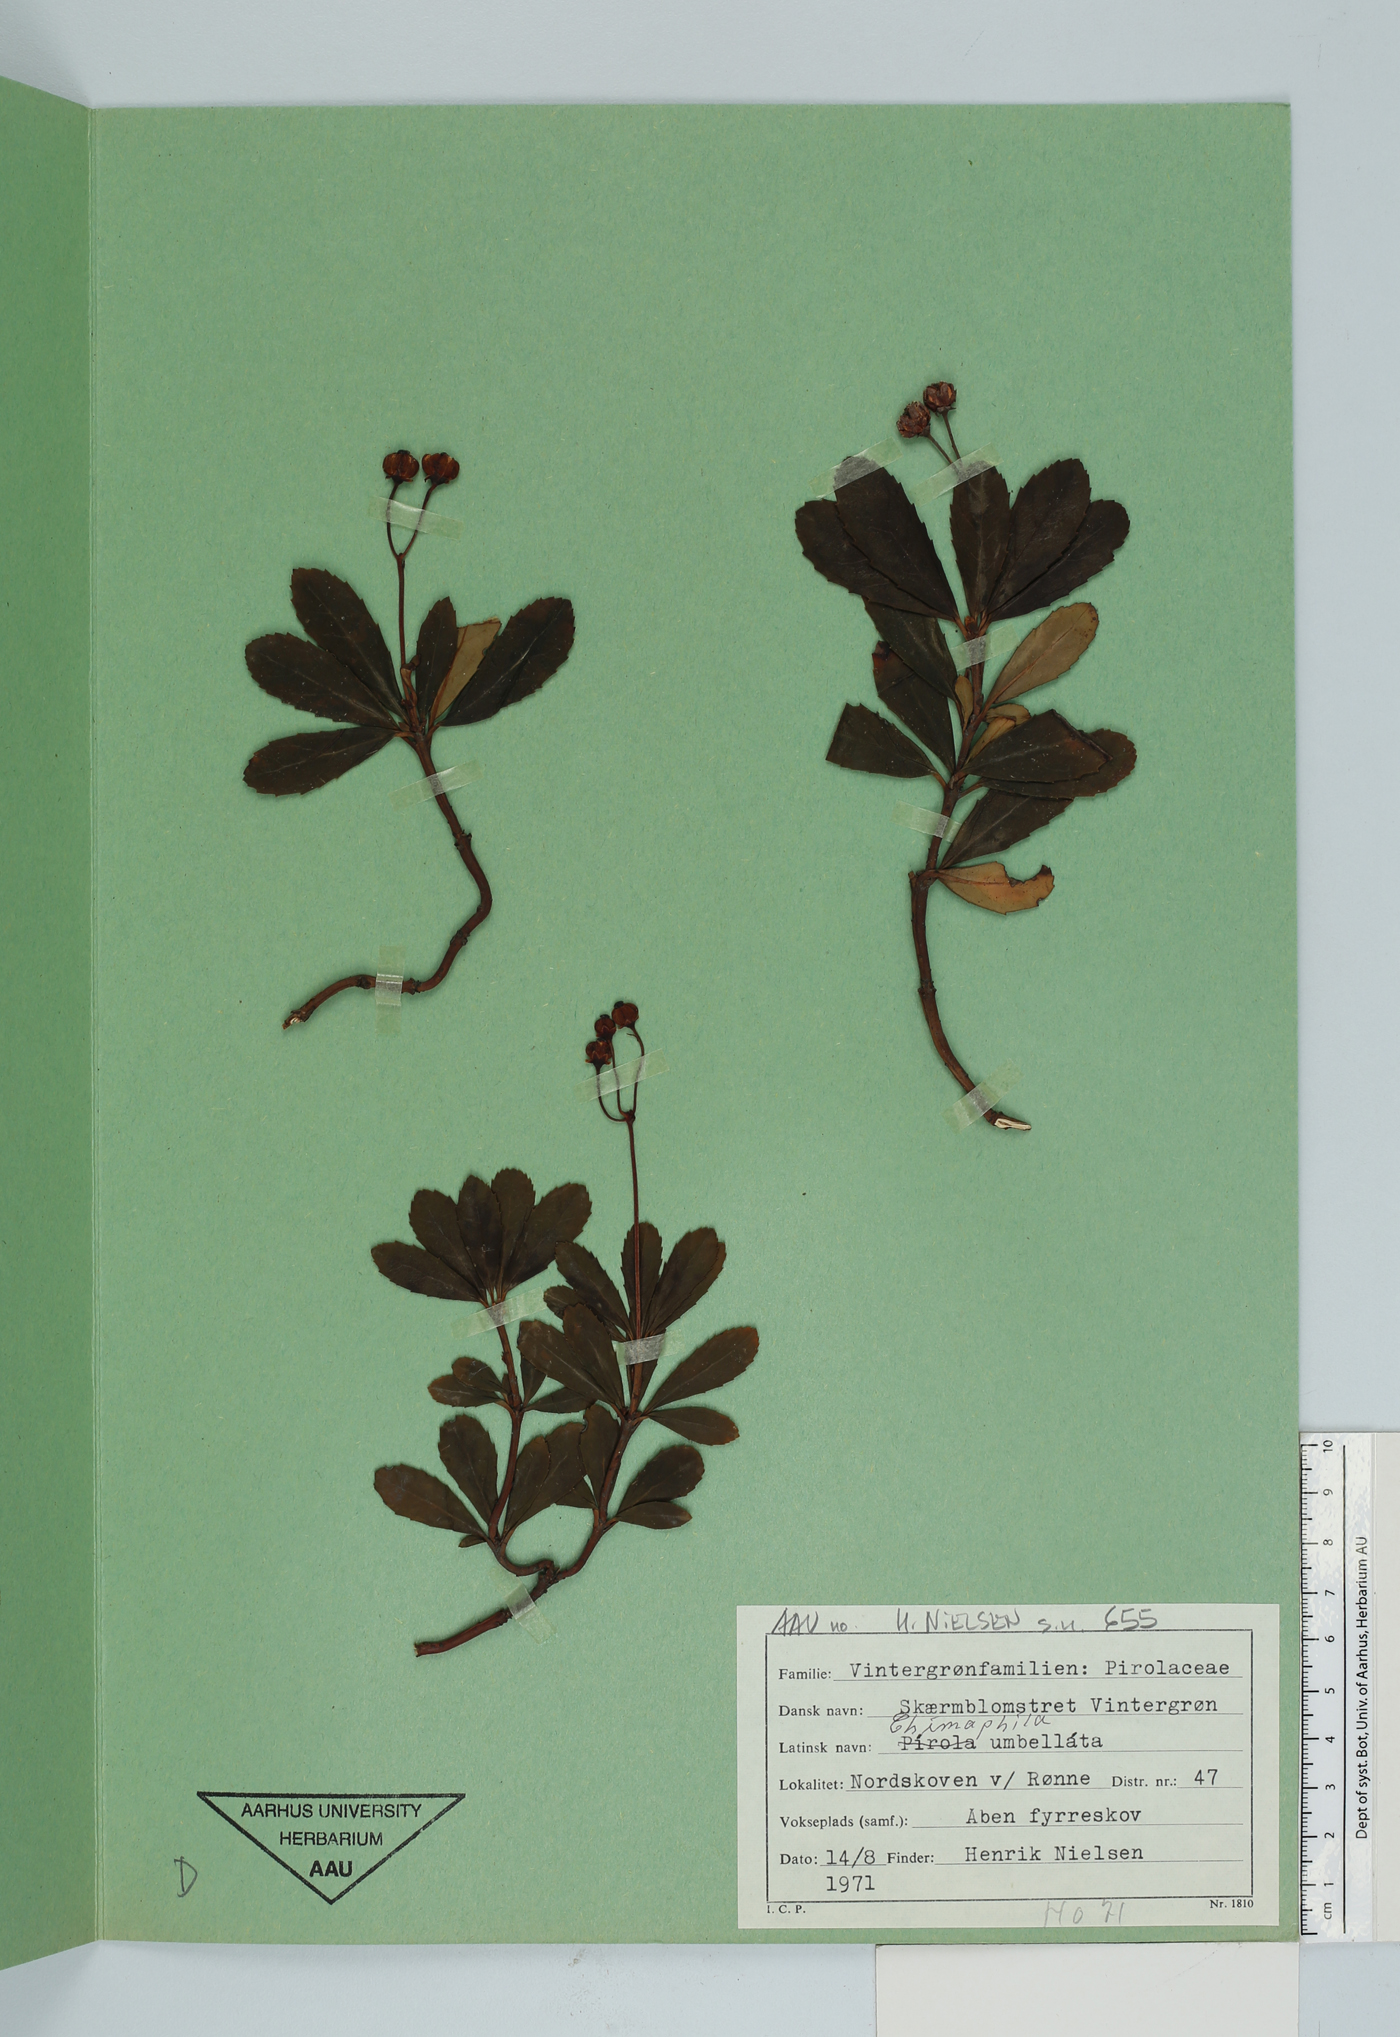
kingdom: Plantae
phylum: Tracheophyta
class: Magnoliopsida
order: Ericales
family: Ericaceae
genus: Chimaphila
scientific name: Chimaphila umbellata
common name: Pipsissewa
